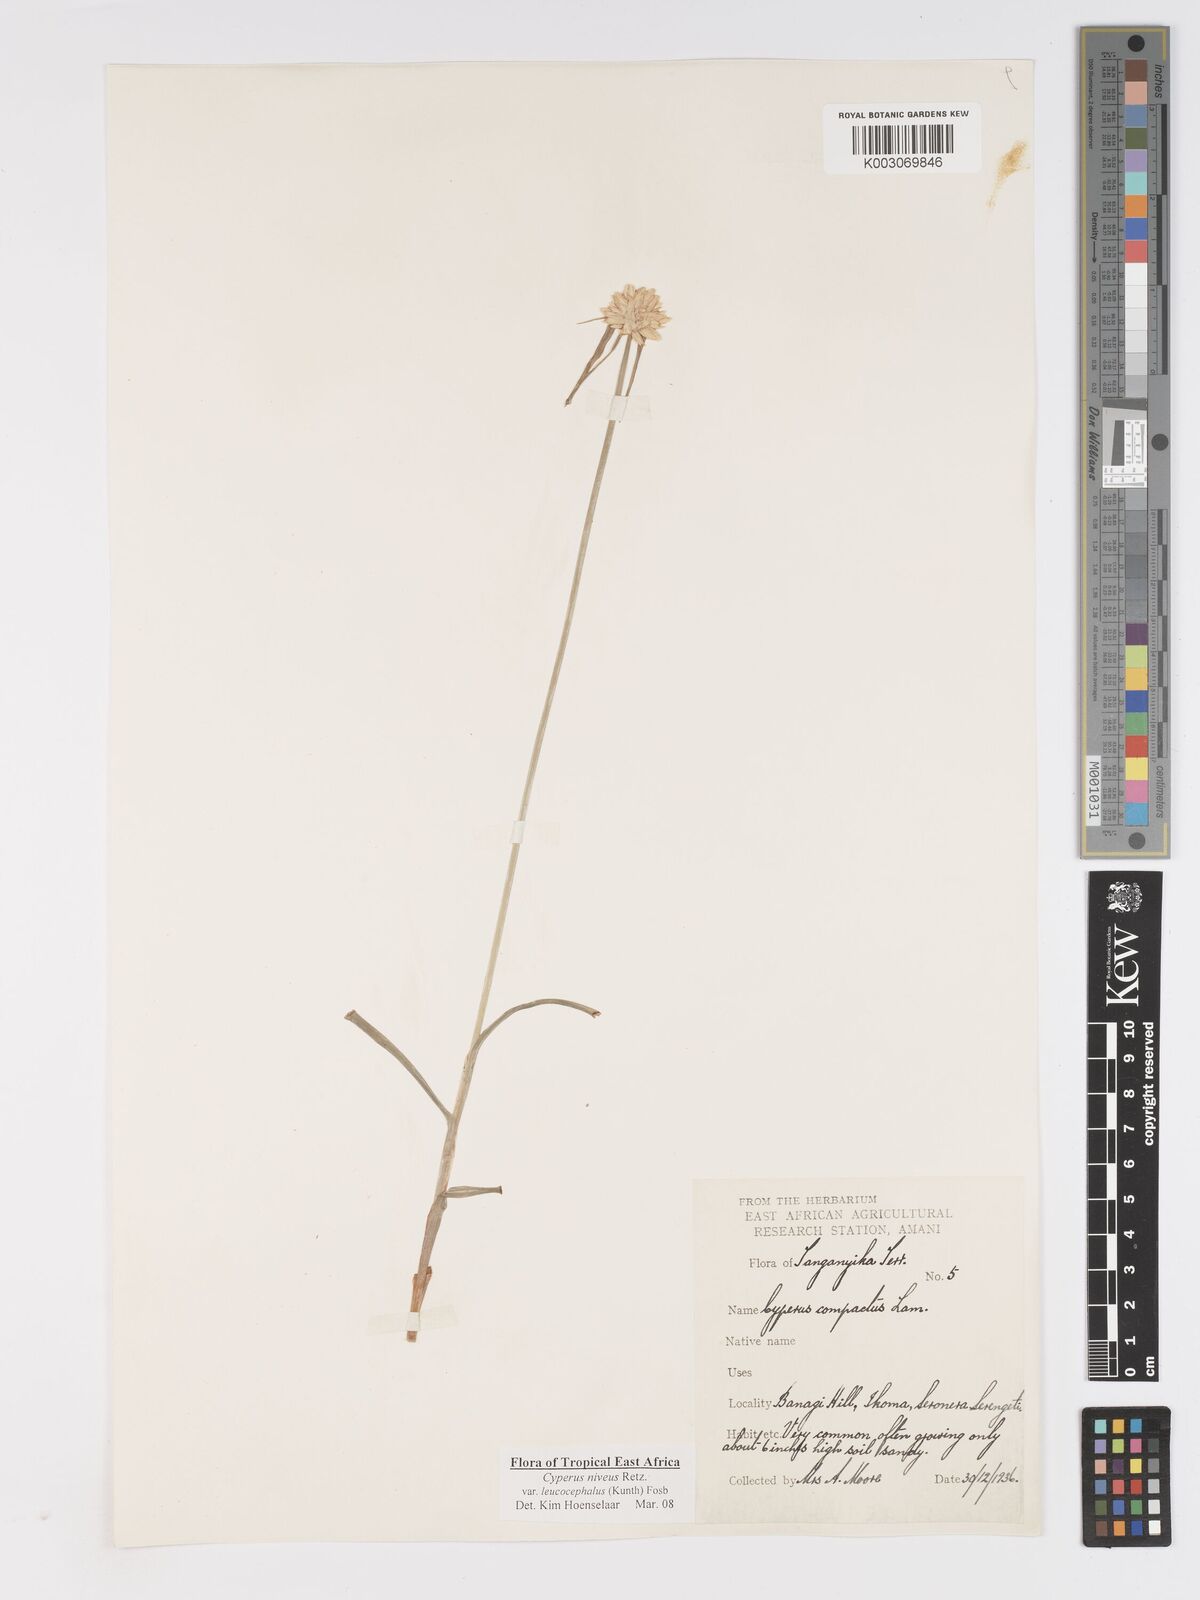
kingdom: Plantae
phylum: Tracheophyta
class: Liliopsida
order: Poales
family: Cyperaceae
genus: Cyperus
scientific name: Cyperus niveus
